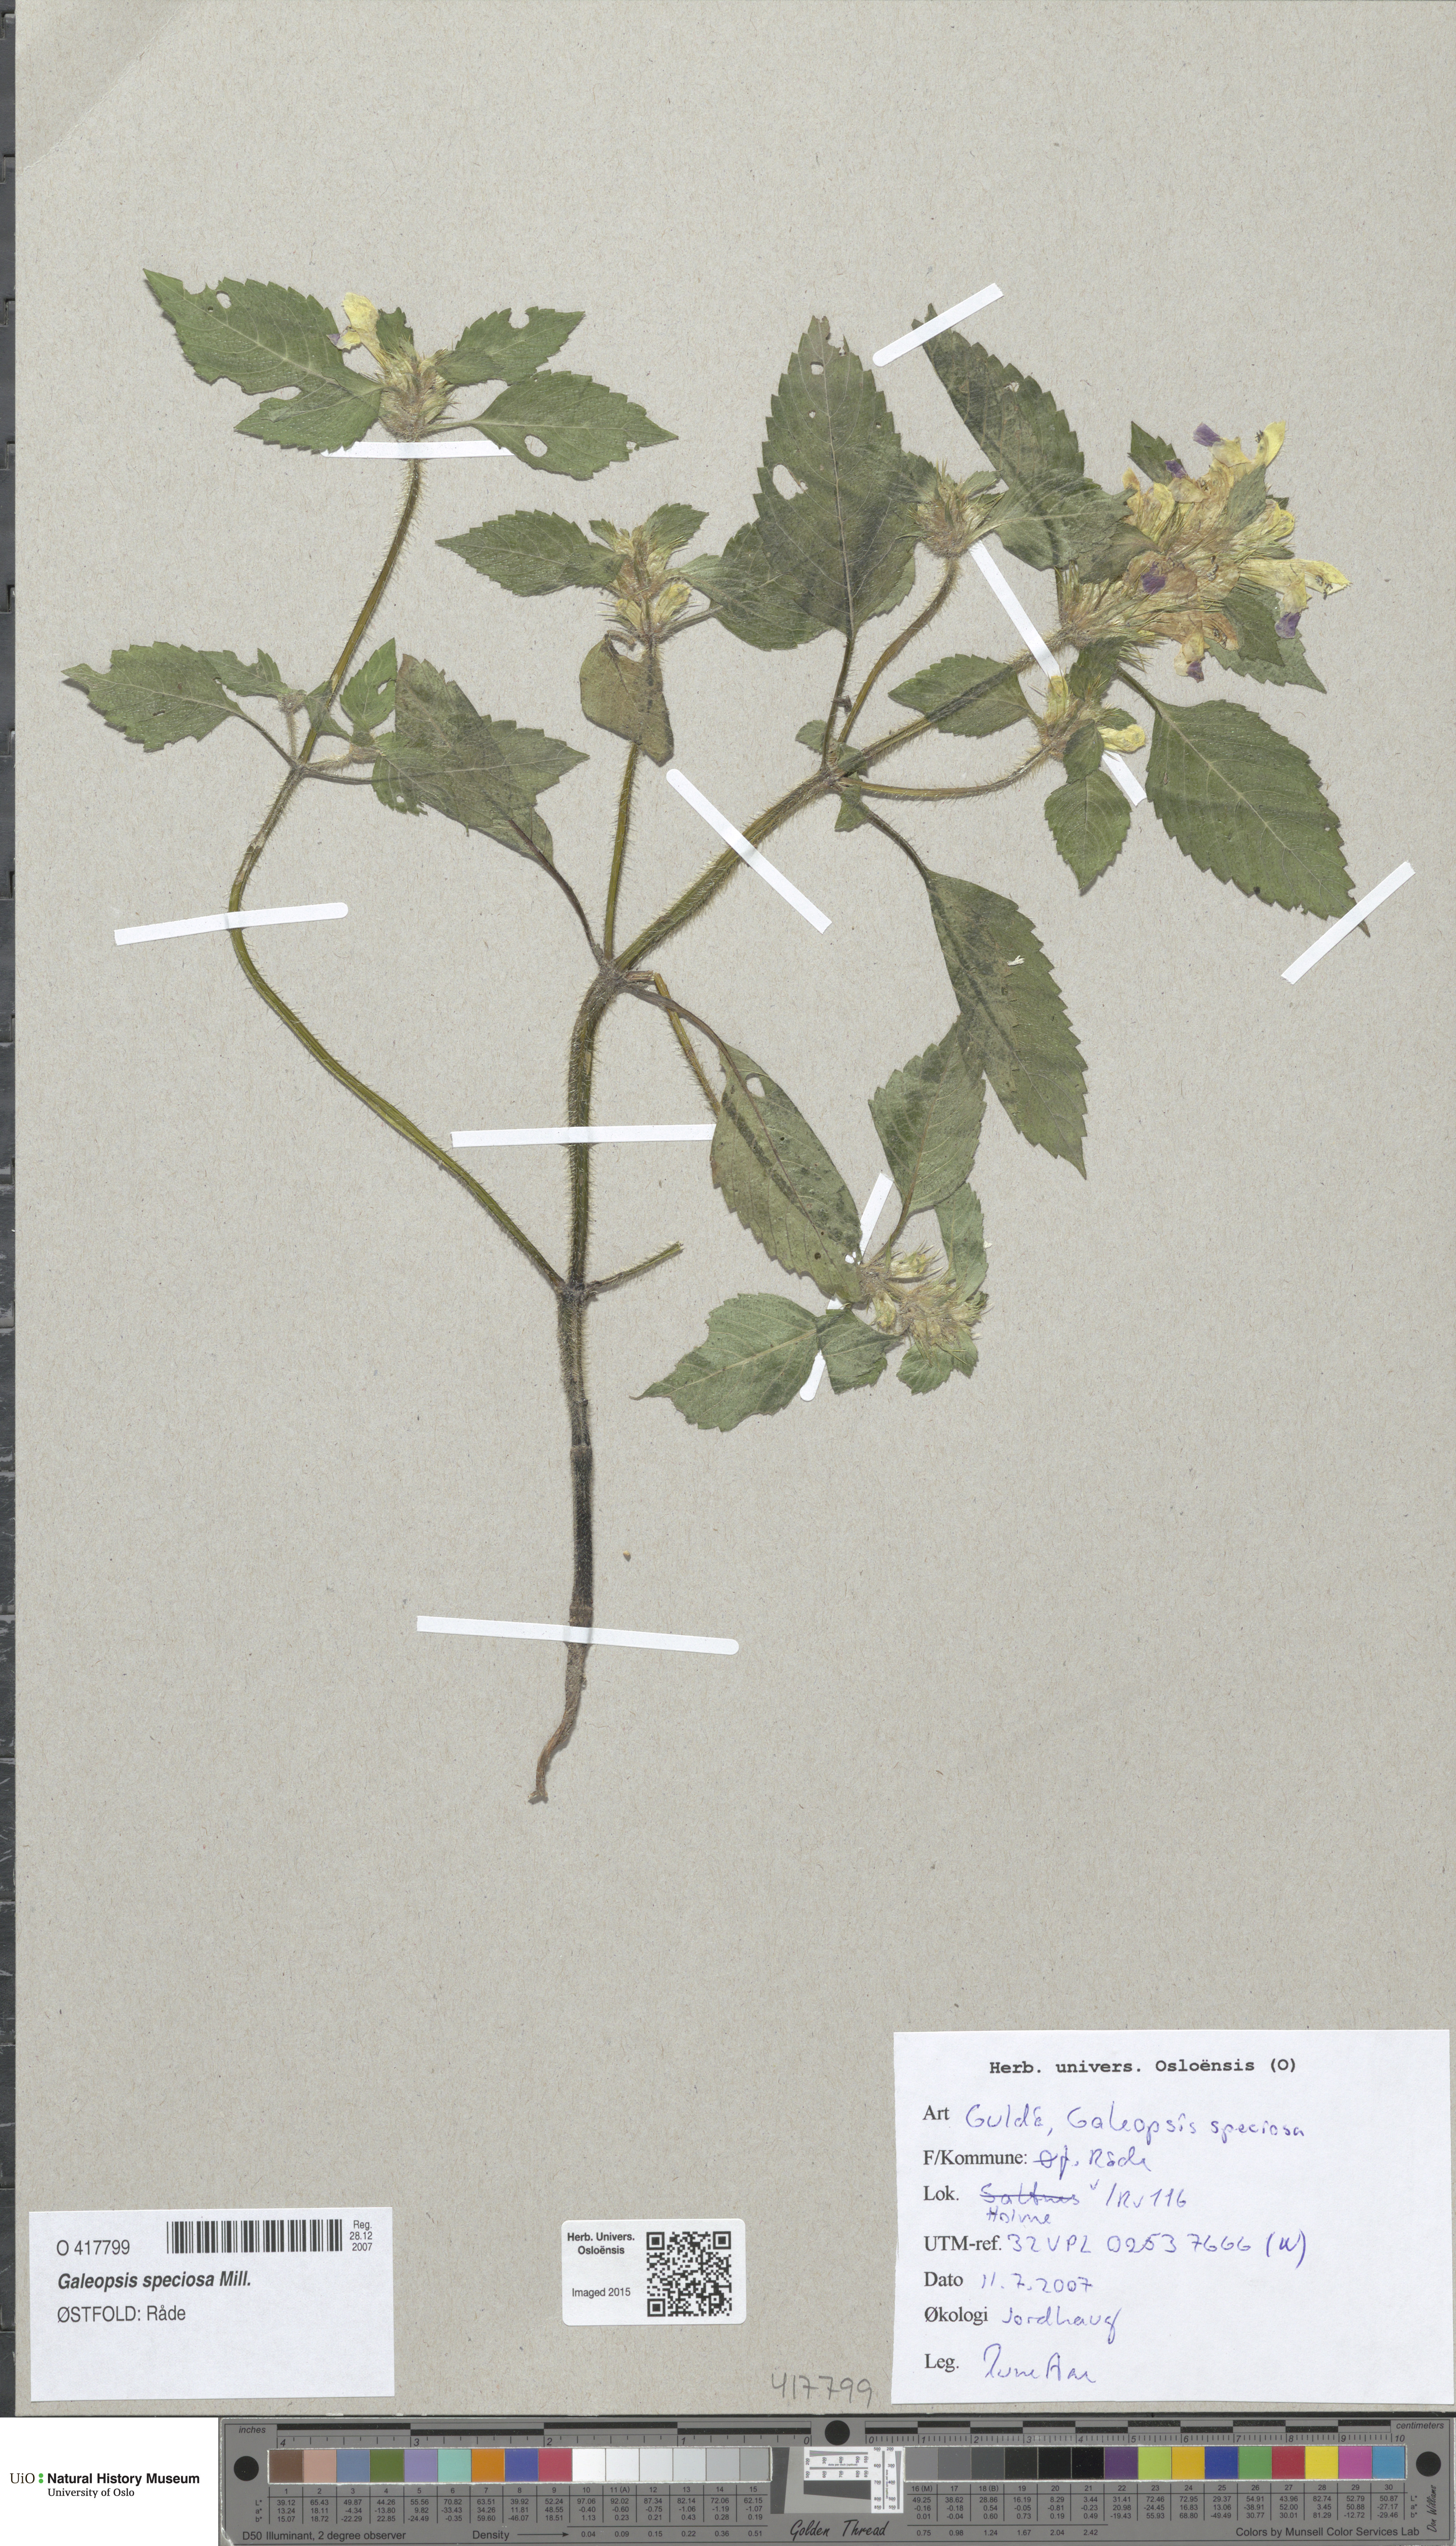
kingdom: Plantae
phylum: Tracheophyta
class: Magnoliopsida
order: Lamiales
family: Lamiaceae
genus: Galeopsis
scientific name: Galeopsis speciosa
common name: Large-flowered hemp-nettle
